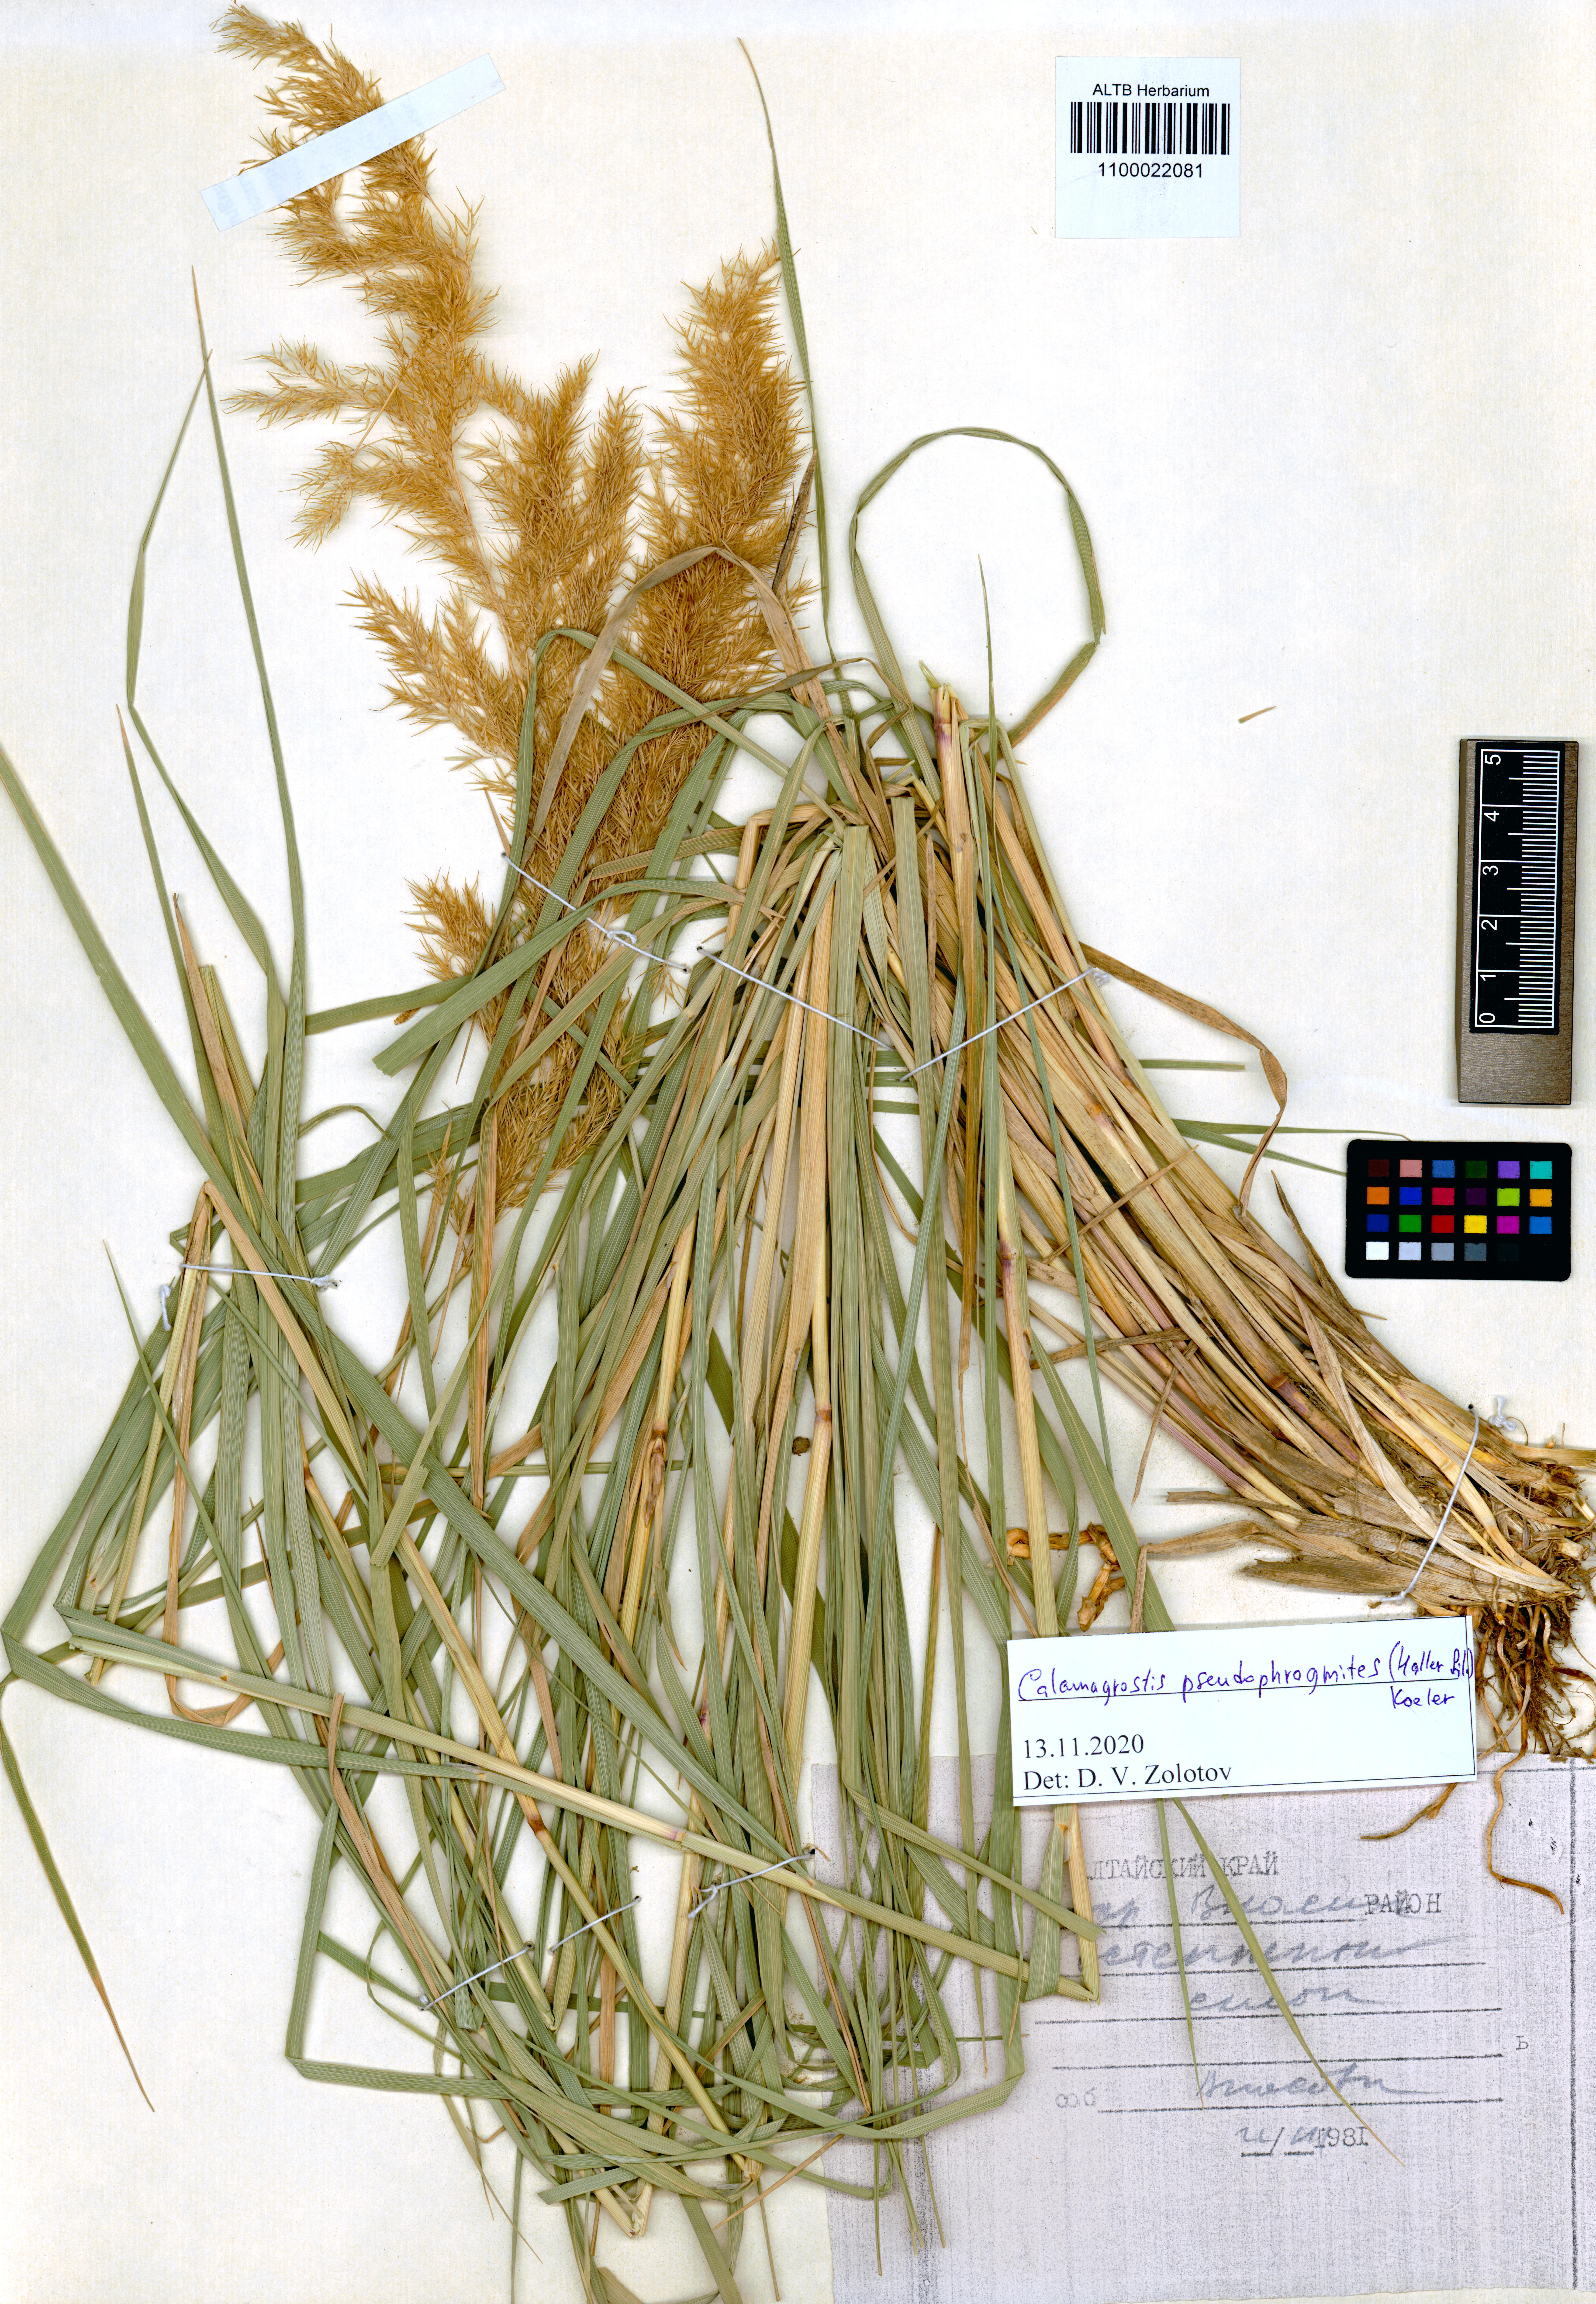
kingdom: Plantae
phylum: Tracheophyta
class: Liliopsida
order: Poales
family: Poaceae
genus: Calamagrostis
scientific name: Calamagrostis pseudophragmites
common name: Coastal small-reed
